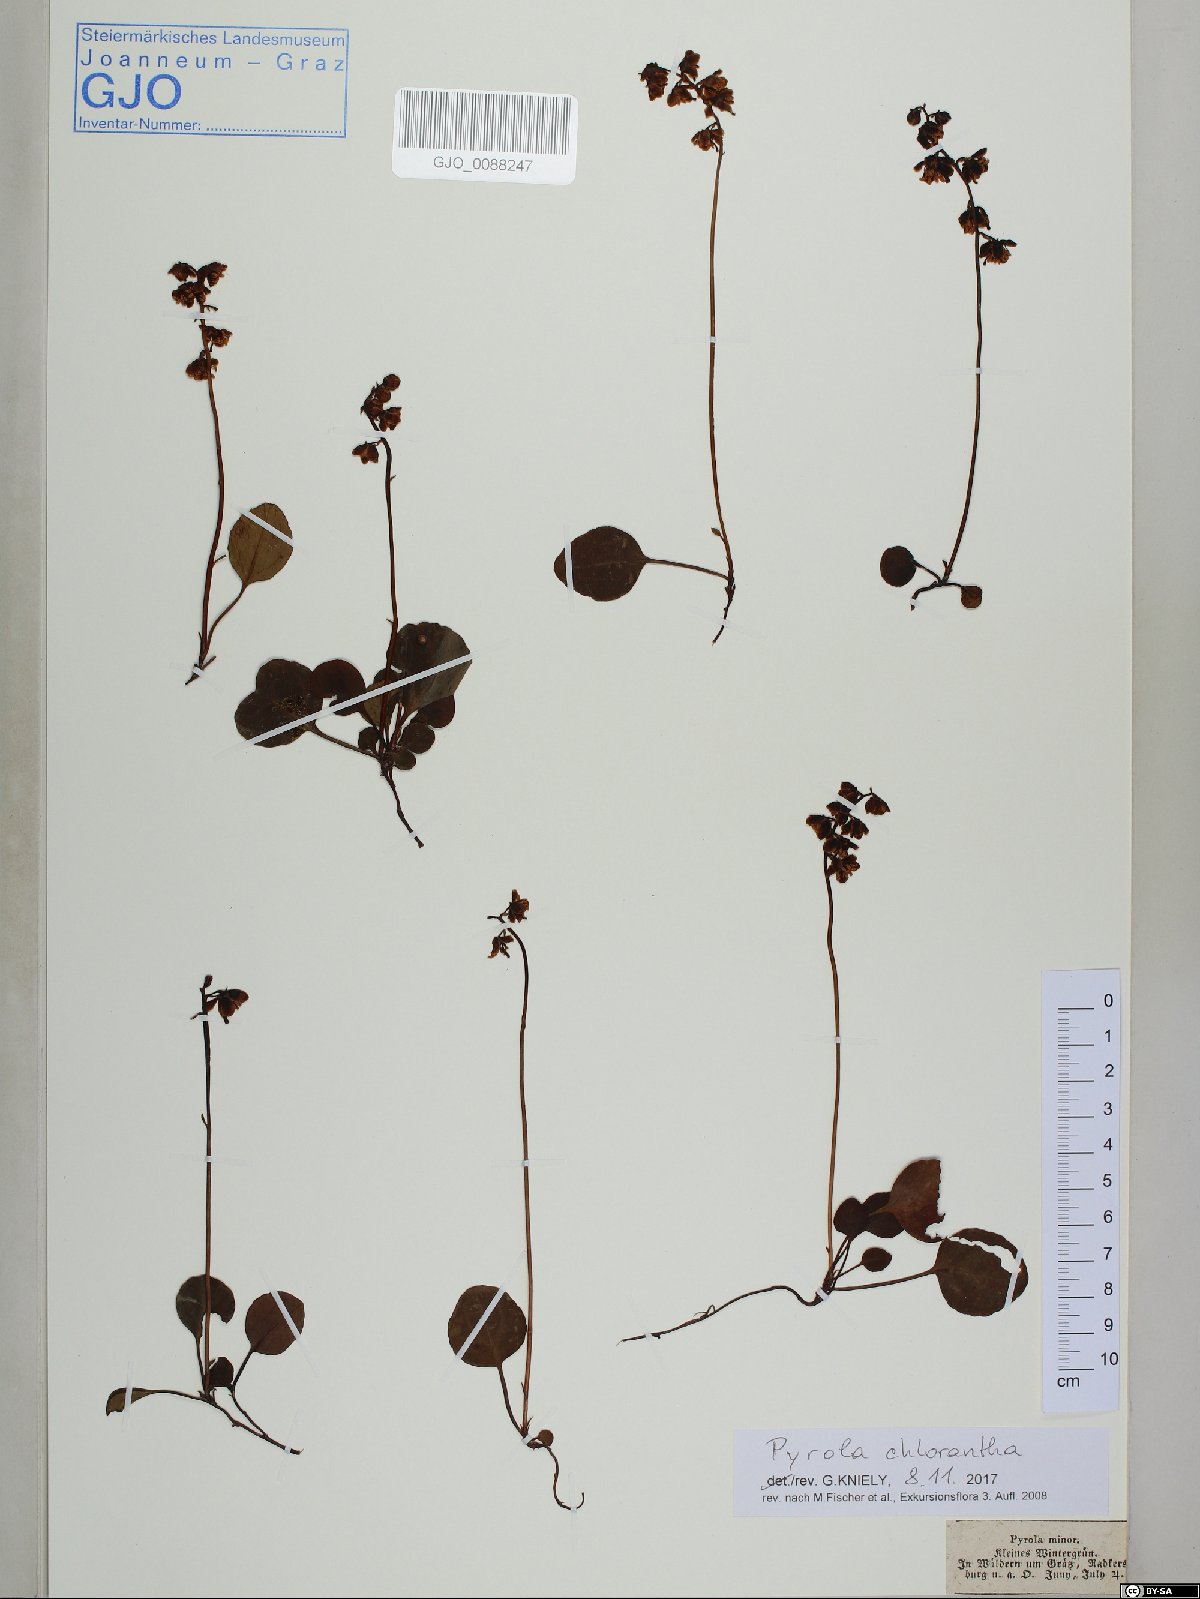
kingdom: Plantae
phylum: Tracheophyta
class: Magnoliopsida
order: Ericales
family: Ericaceae
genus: Pyrola
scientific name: Pyrola chlorantha
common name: Green wintergreen
